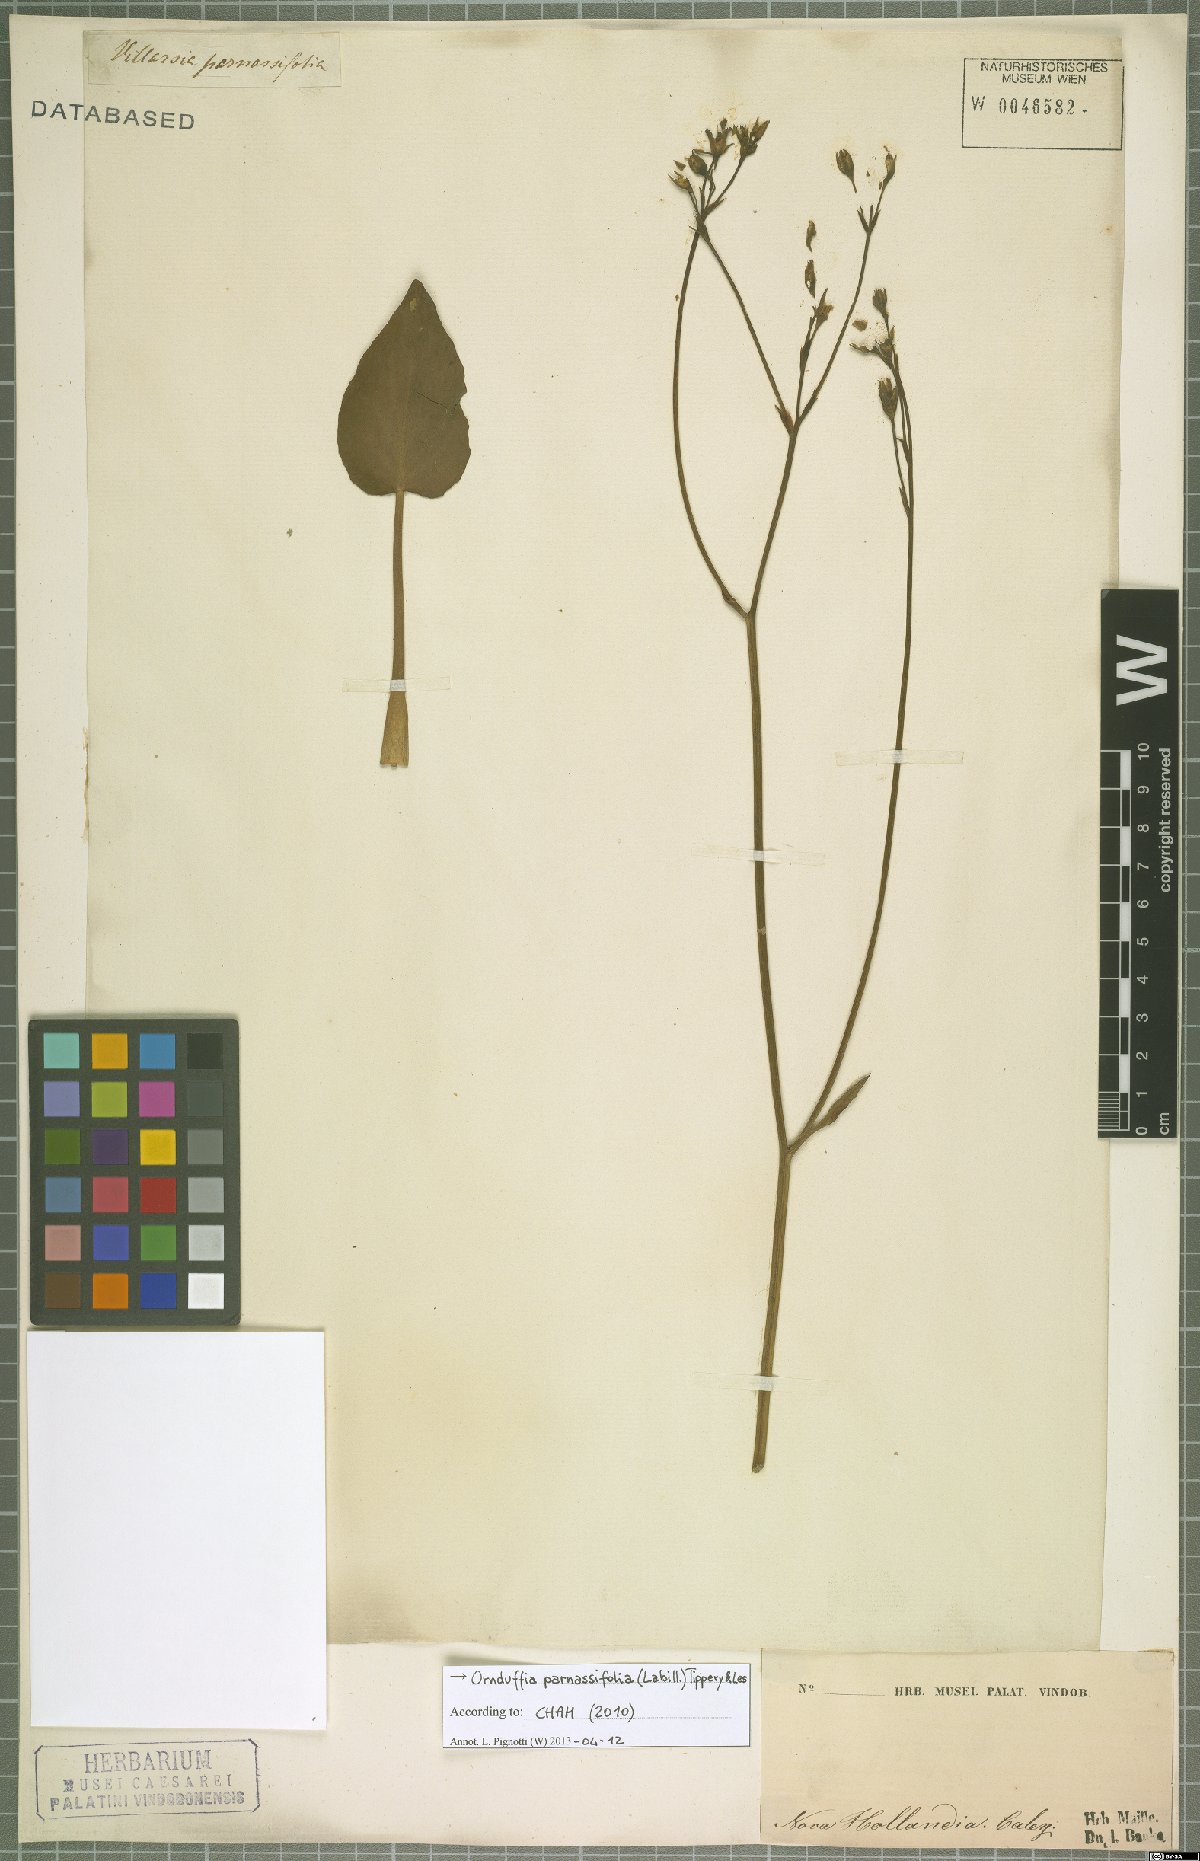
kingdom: Plantae
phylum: Tracheophyta
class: Magnoliopsida
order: Asterales
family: Menyanthaceae
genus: Ornduffia
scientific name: Ornduffia parnassifolia
